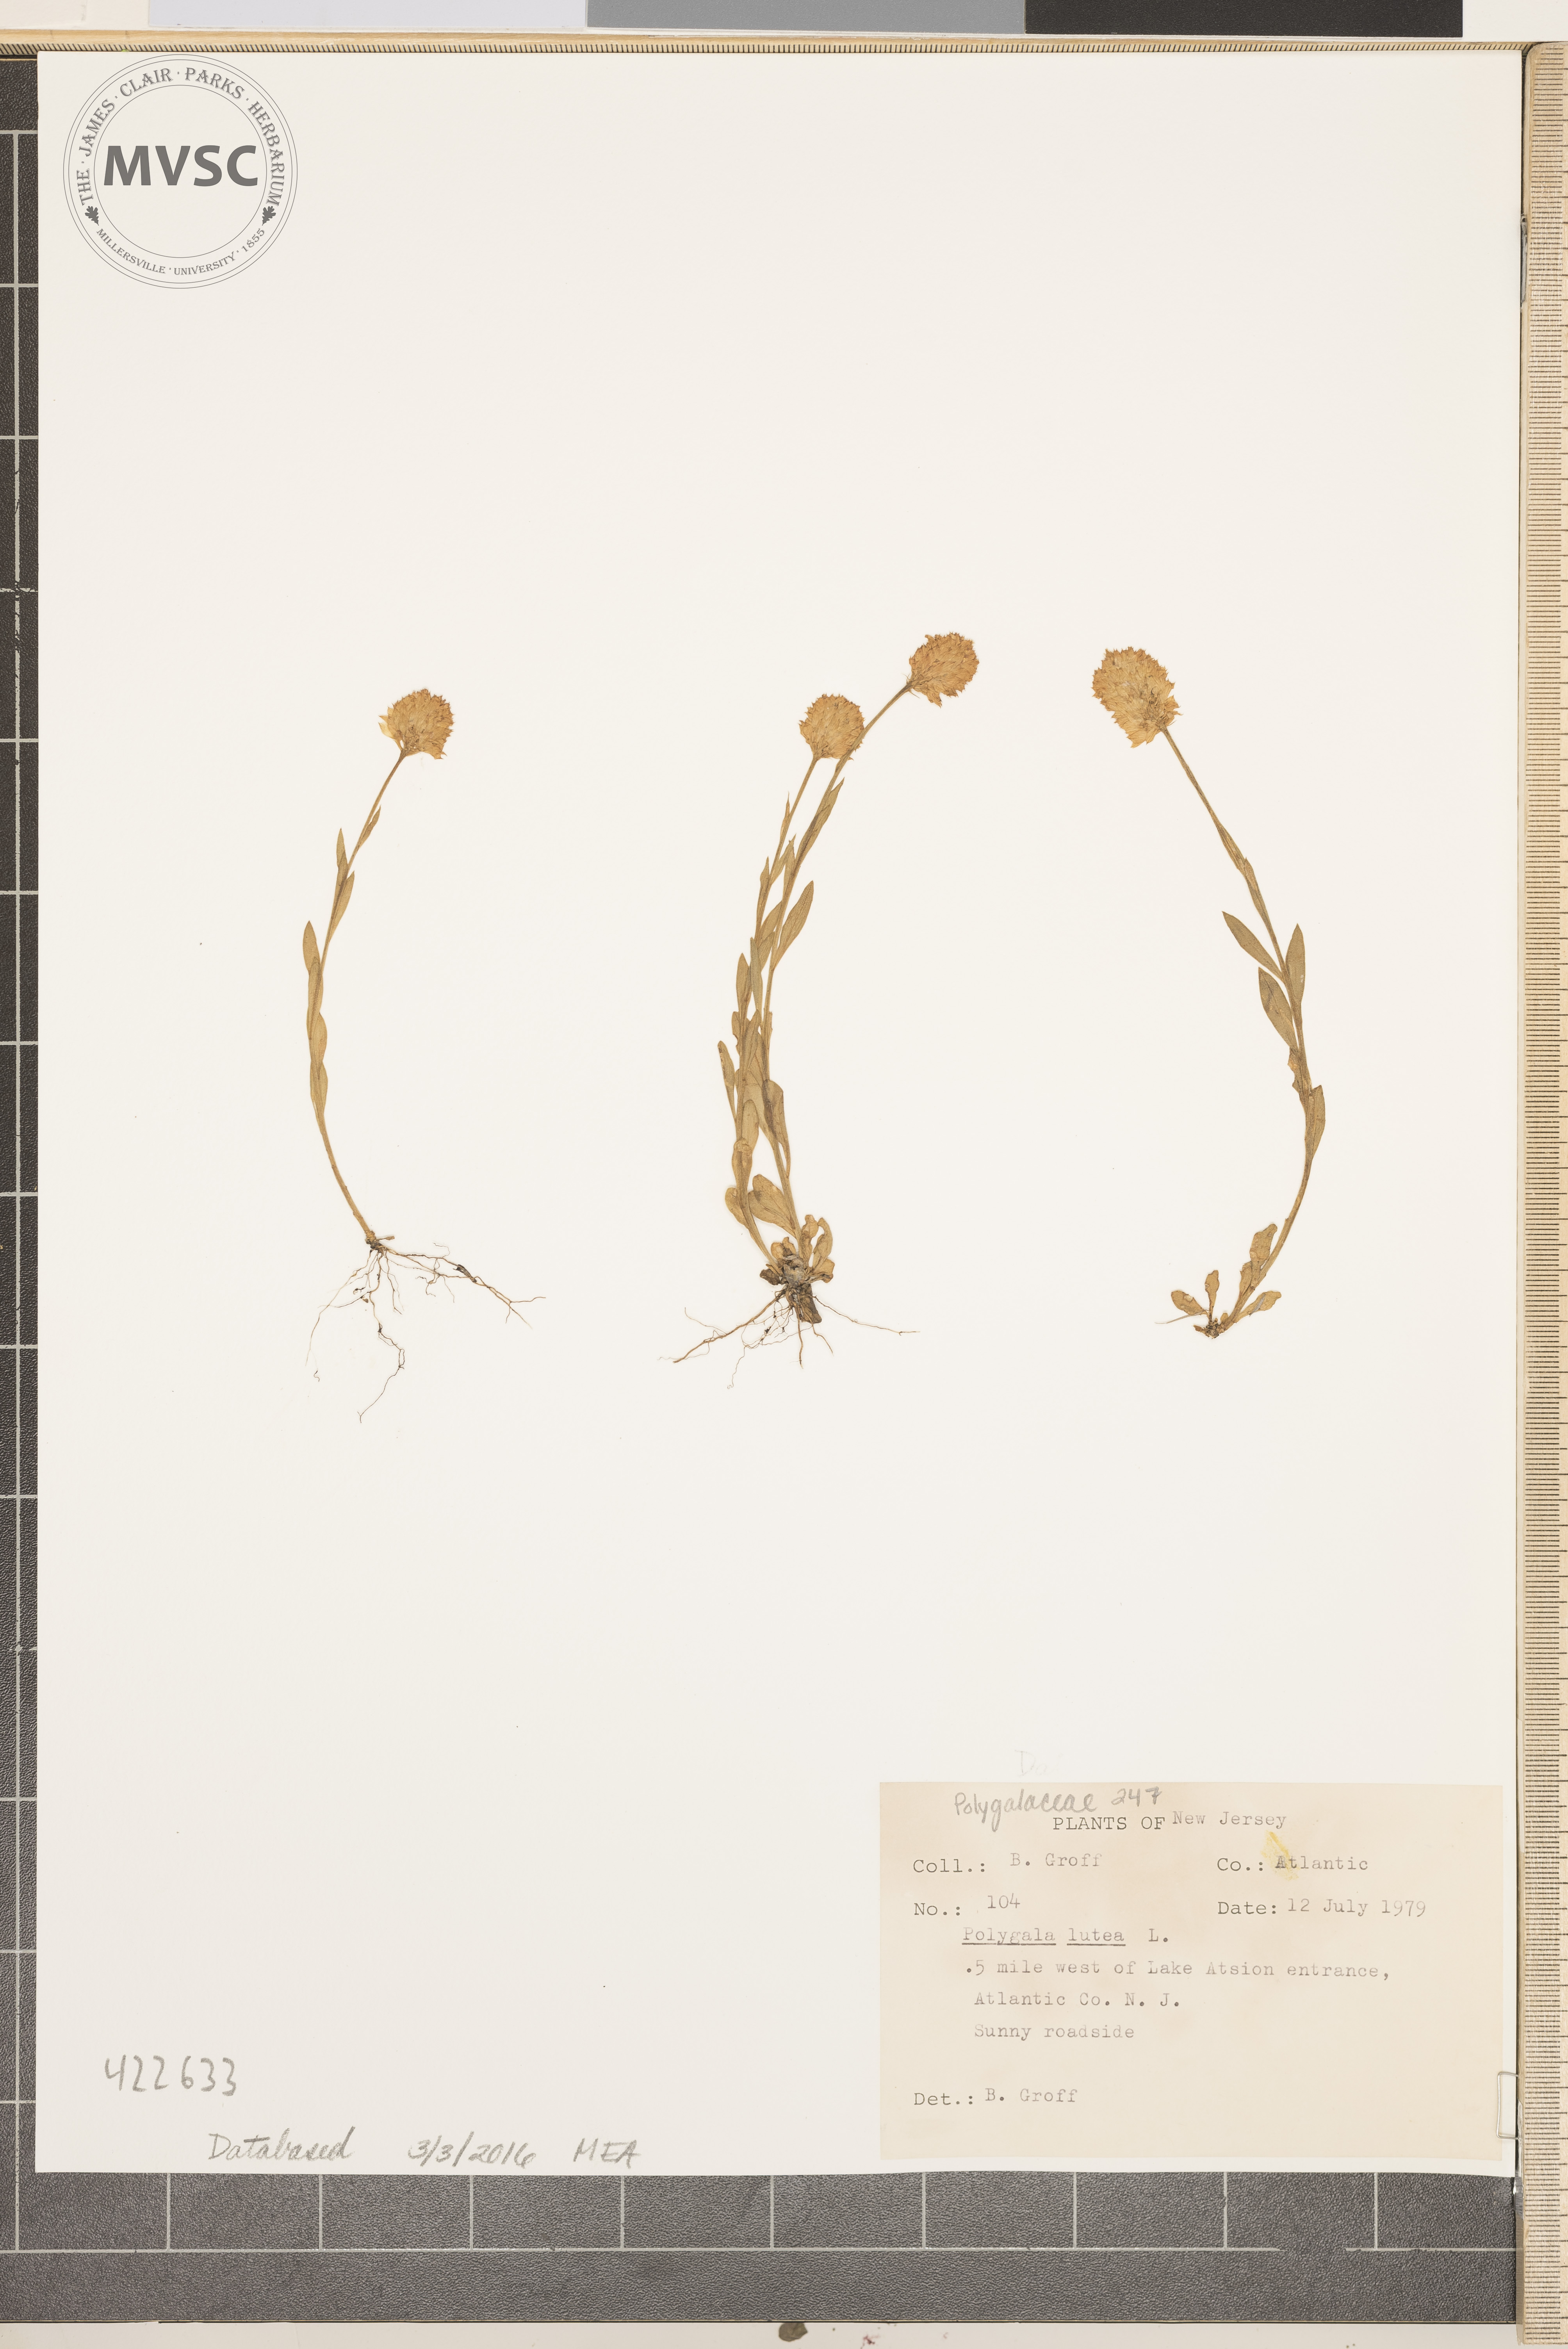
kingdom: Plantae
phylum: Tracheophyta
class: Magnoliopsida
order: Fabales
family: Polygalaceae
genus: Polygala
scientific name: Polygala lutea
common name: Orange Milkwort
